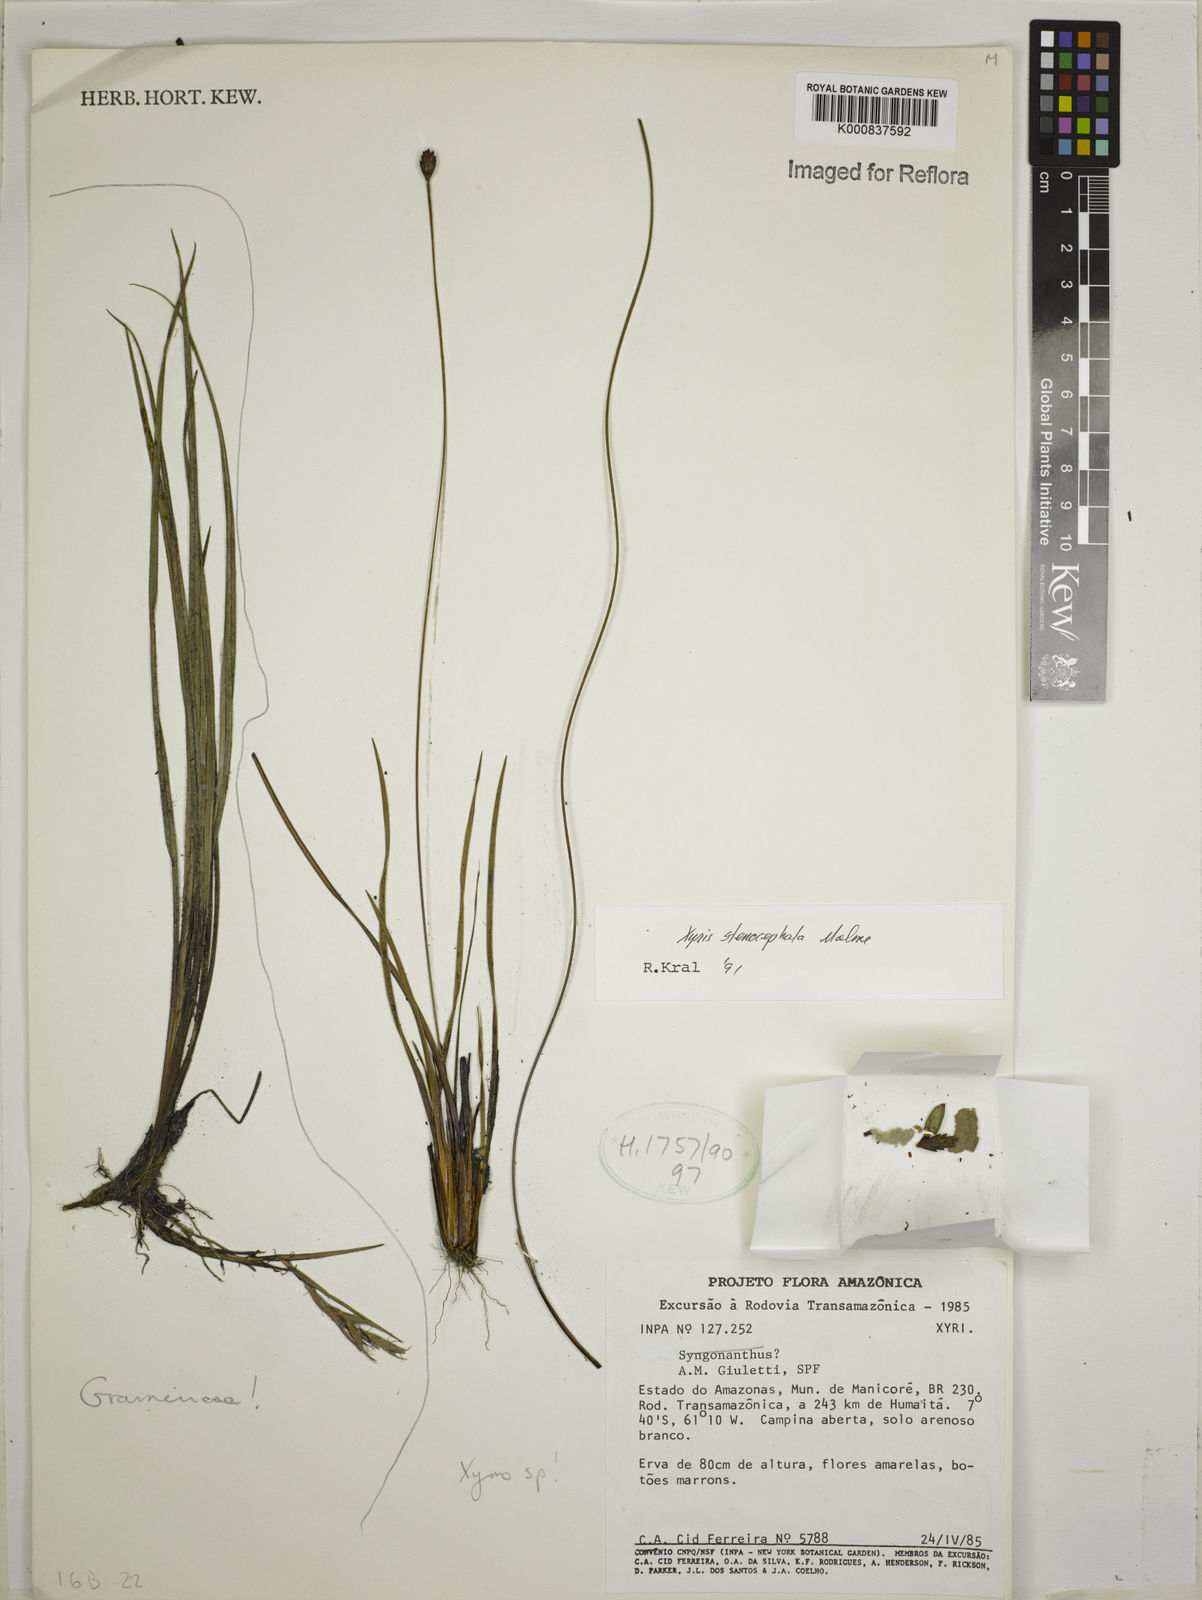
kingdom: Plantae
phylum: Tracheophyta
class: Liliopsida
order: Poales
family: Xyridaceae
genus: Xyris
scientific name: Xyris stenocephala
